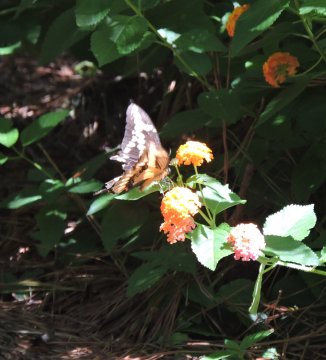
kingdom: Animalia
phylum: Arthropoda
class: Insecta
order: Lepidoptera
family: Papilionidae
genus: Papilio
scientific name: Papilio cresphontes
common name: Eastern Giant Swallowtail
